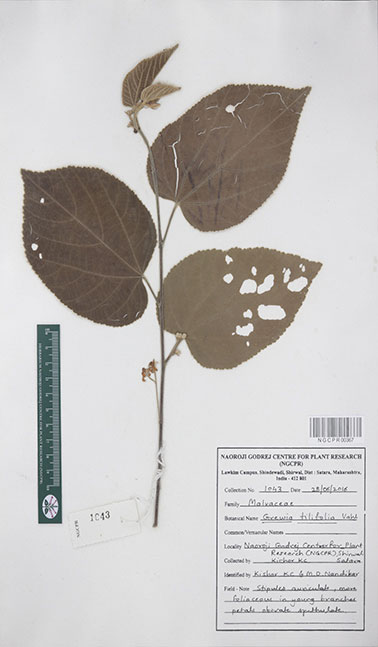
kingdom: Plantae
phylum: Tracheophyta
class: Magnoliopsida
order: Malvales
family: Malvaceae
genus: Grewia
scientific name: Grewia tiliifolia
